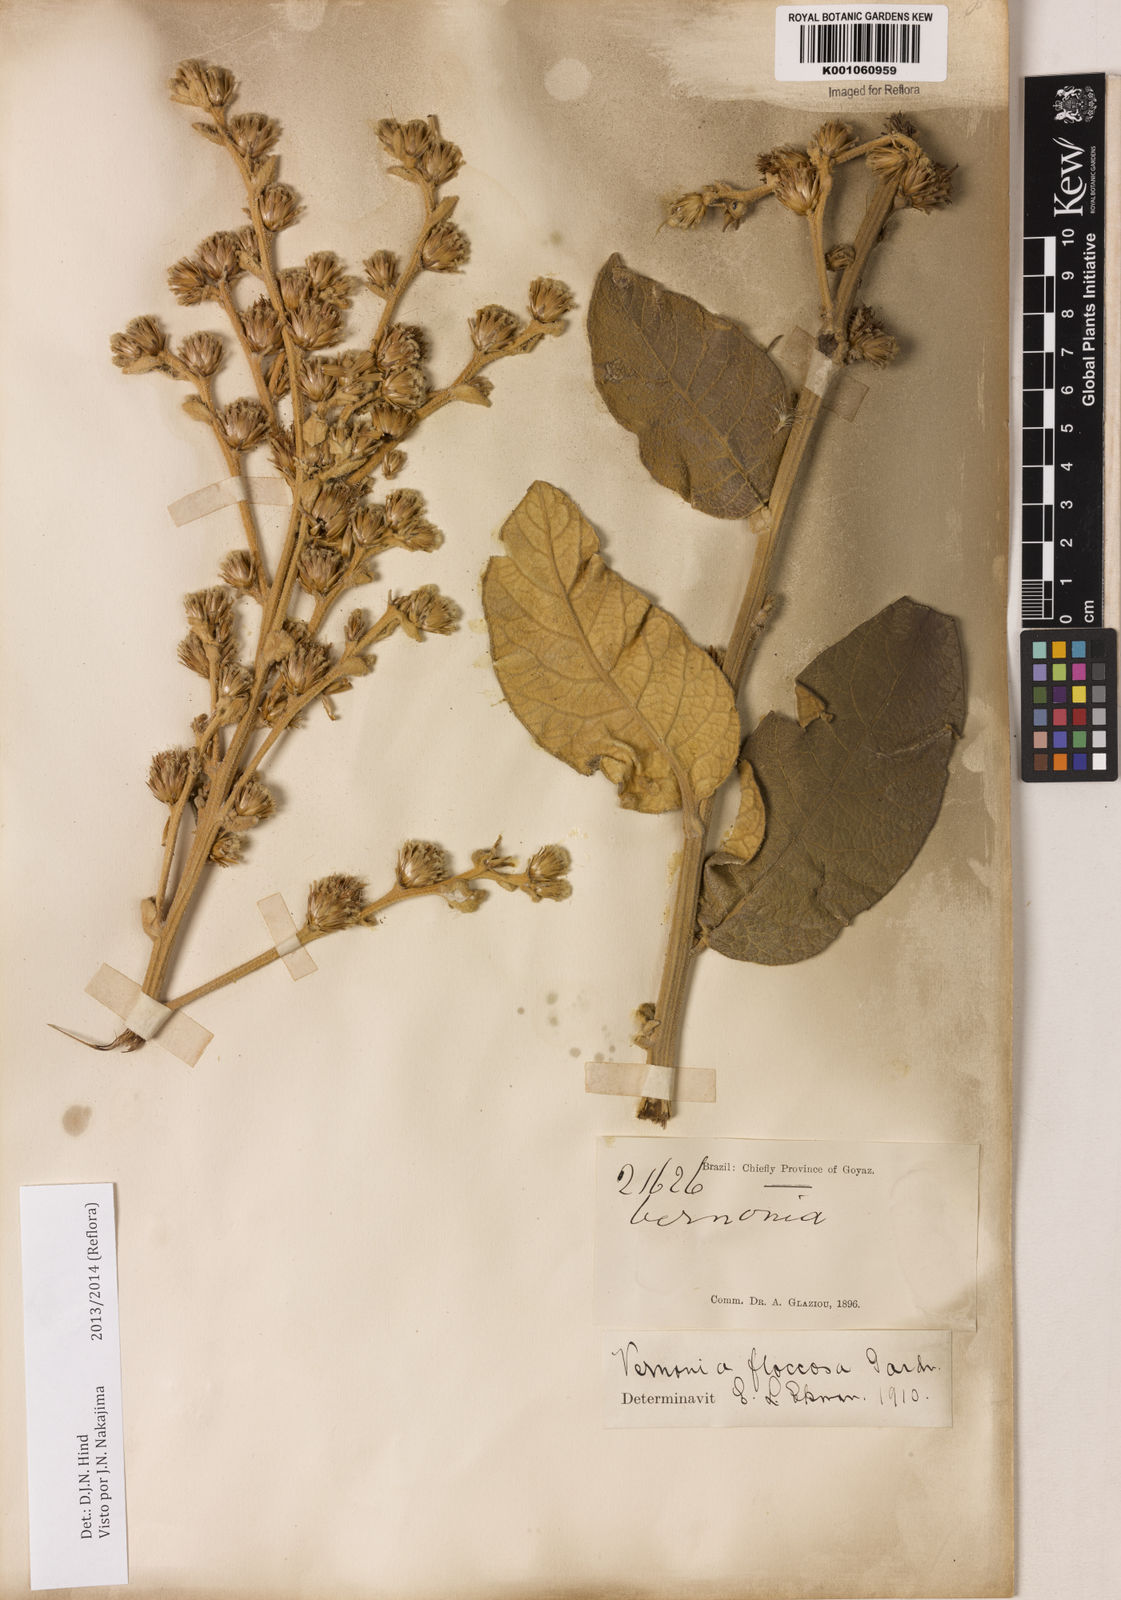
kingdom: Plantae
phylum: Tracheophyta
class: Magnoliopsida
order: Asterales
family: Asteraceae
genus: Lessingianthus
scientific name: Lessingianthus floccosus
